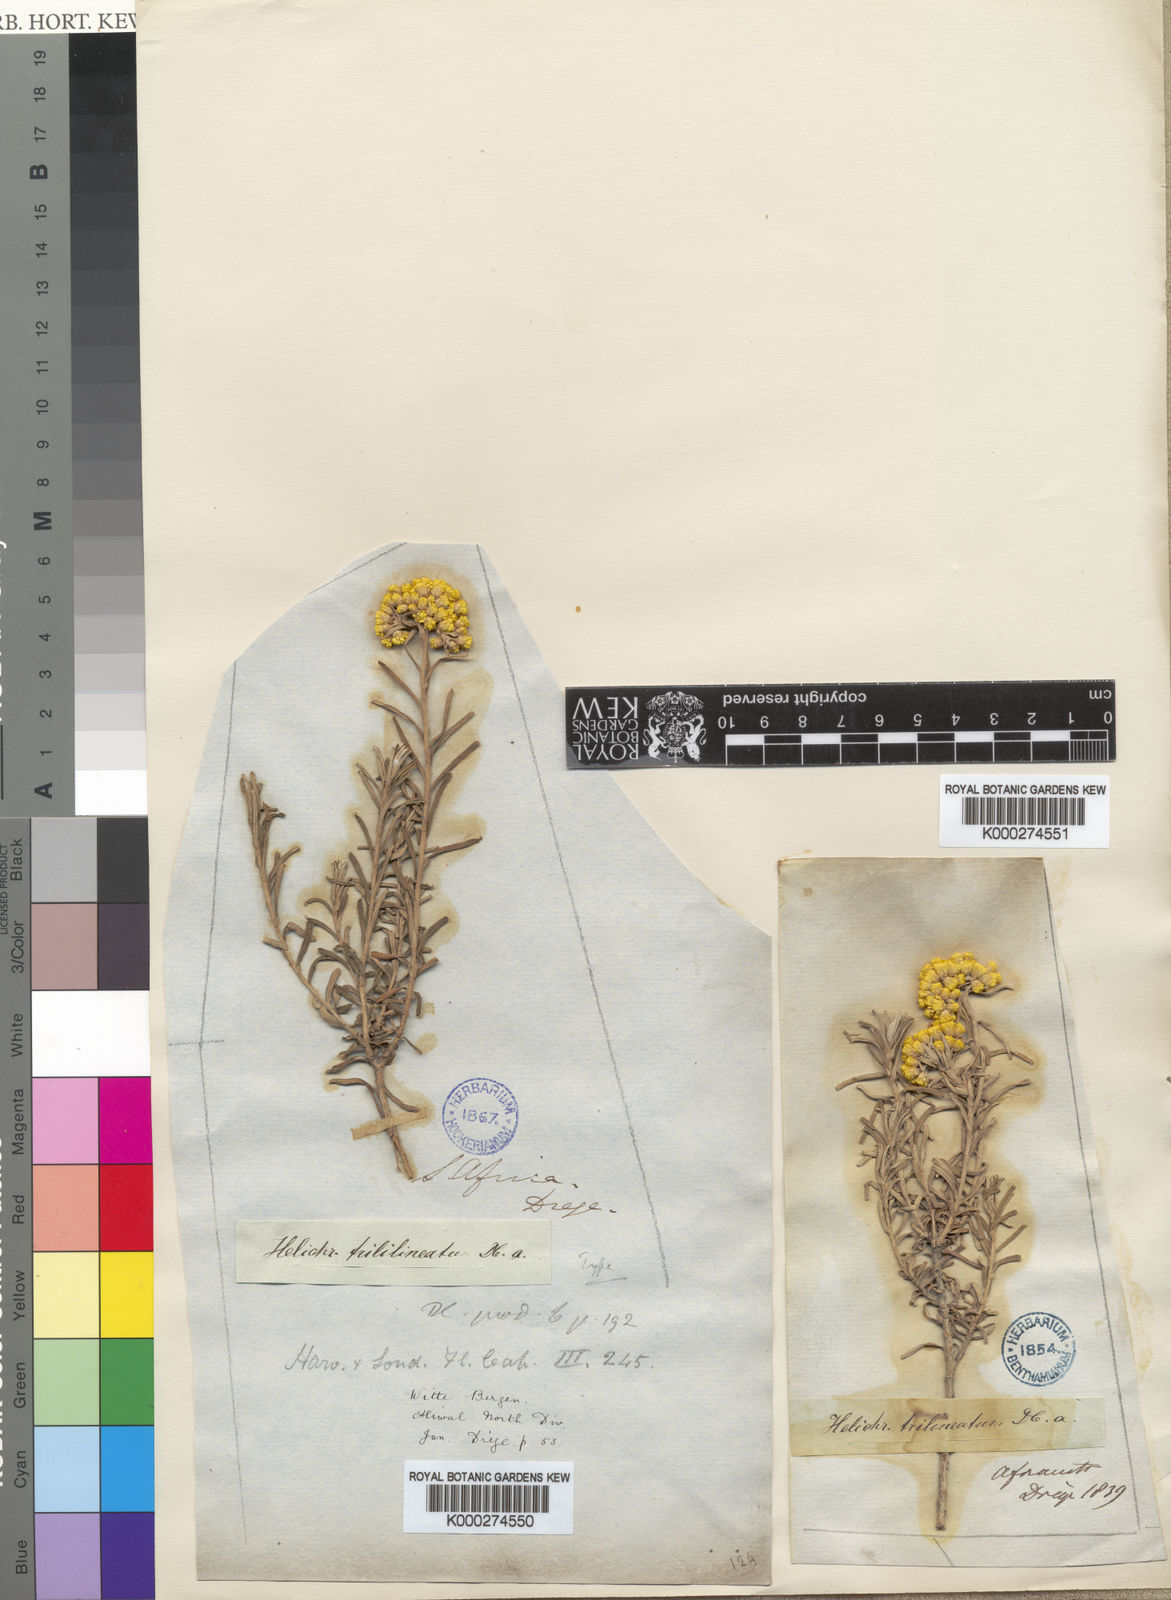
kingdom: Plantae
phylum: Tracheophyta
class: Magnoliopsida
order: Asterales
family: Asteraceae
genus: Helichrysum
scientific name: Helichrysum trilineatum
